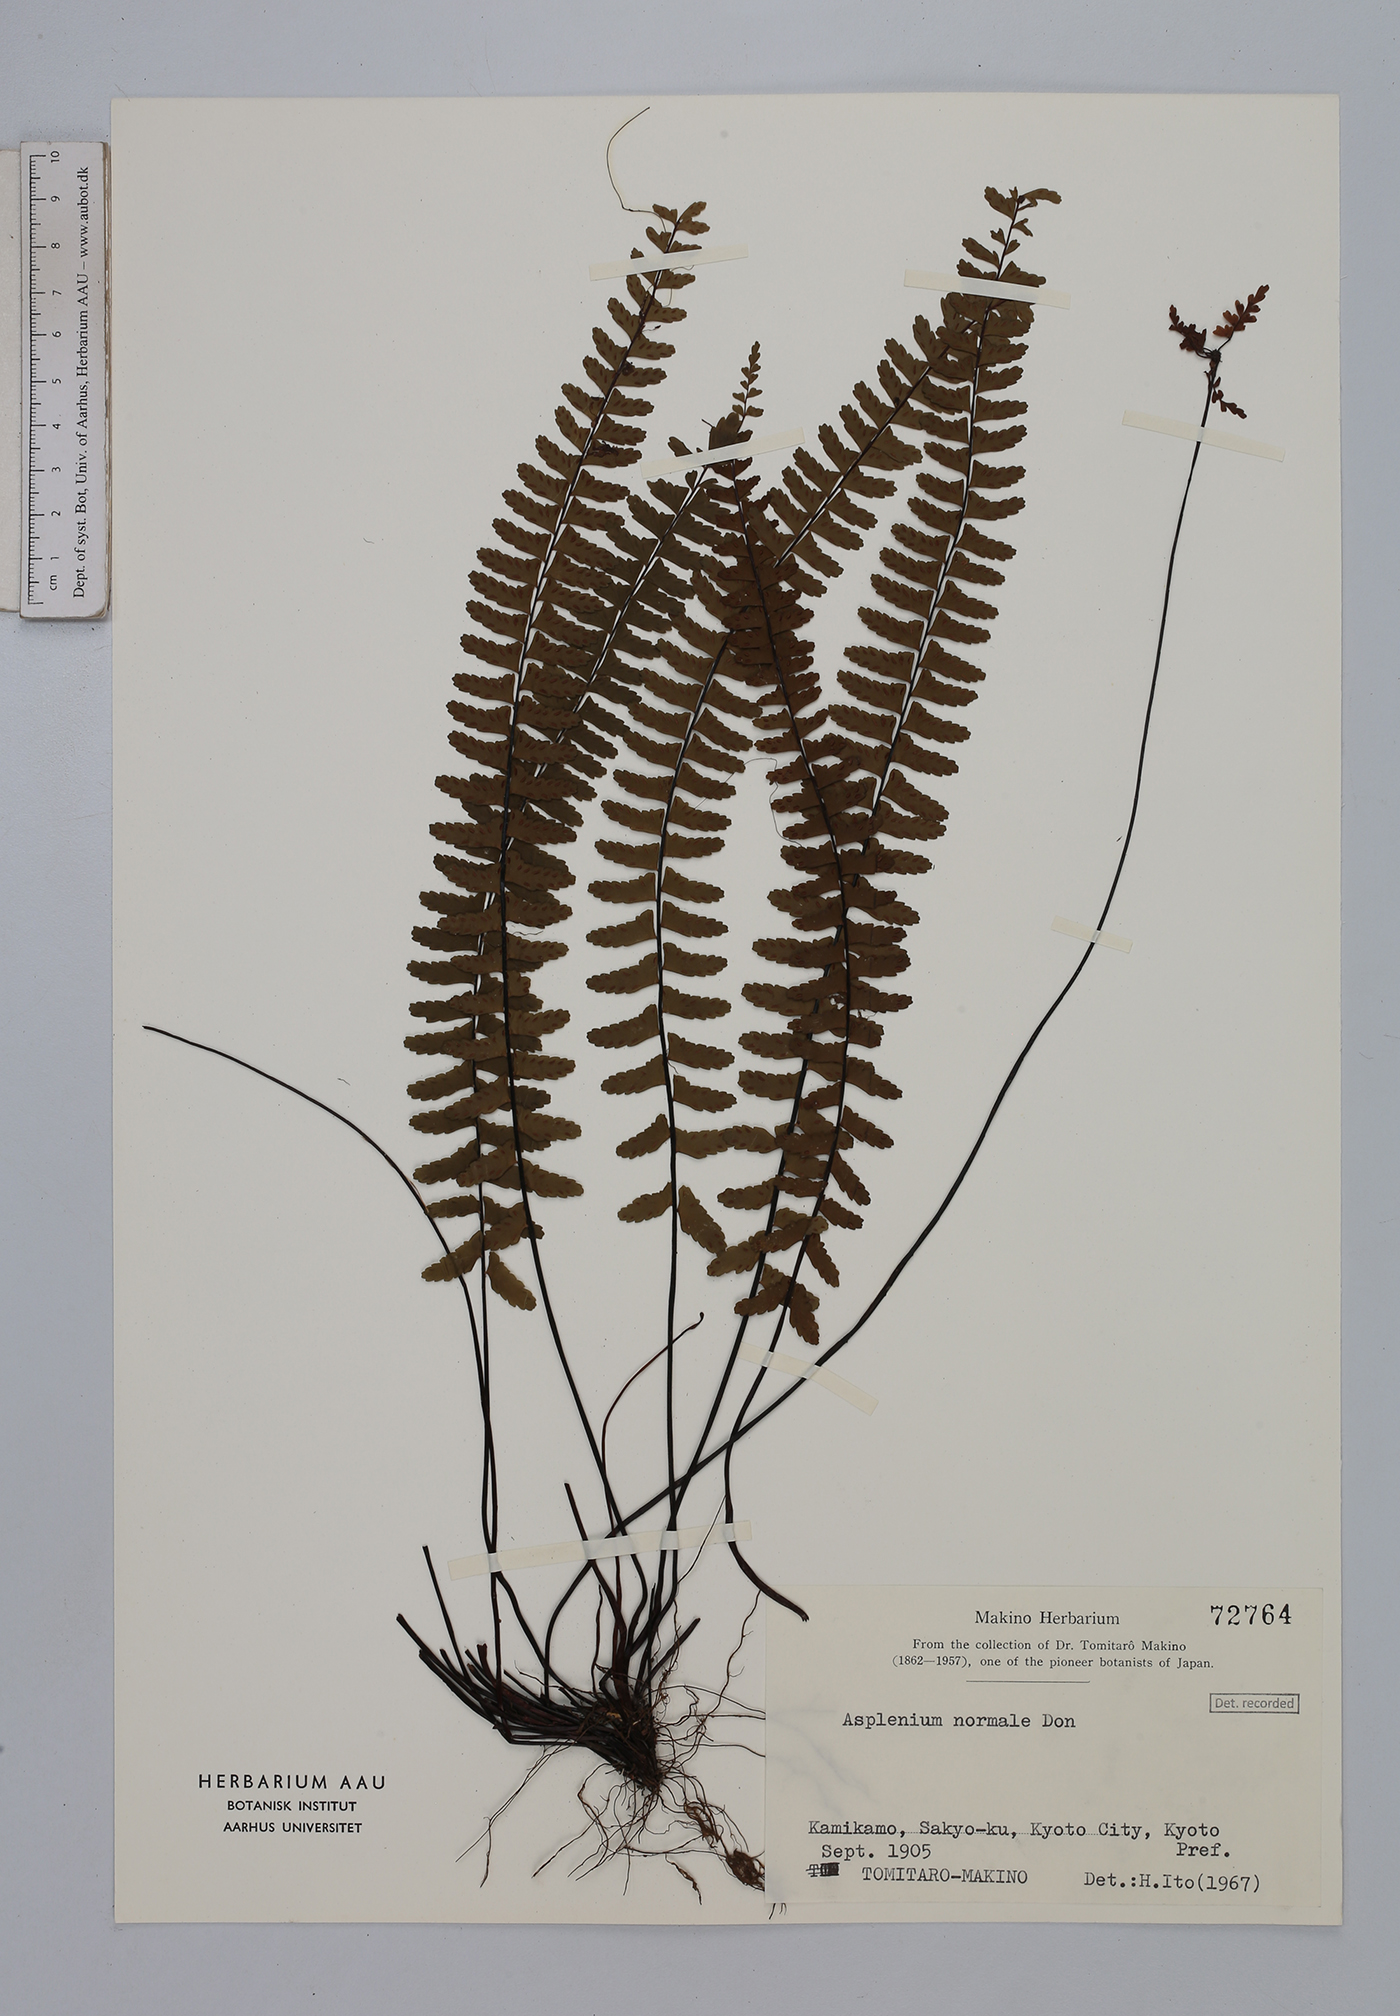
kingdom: Plantae
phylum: Tracheophyta
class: Polypodiopsida
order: Polypodiales
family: Aspleniaceae
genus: Asplenium
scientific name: Asplenium normale
